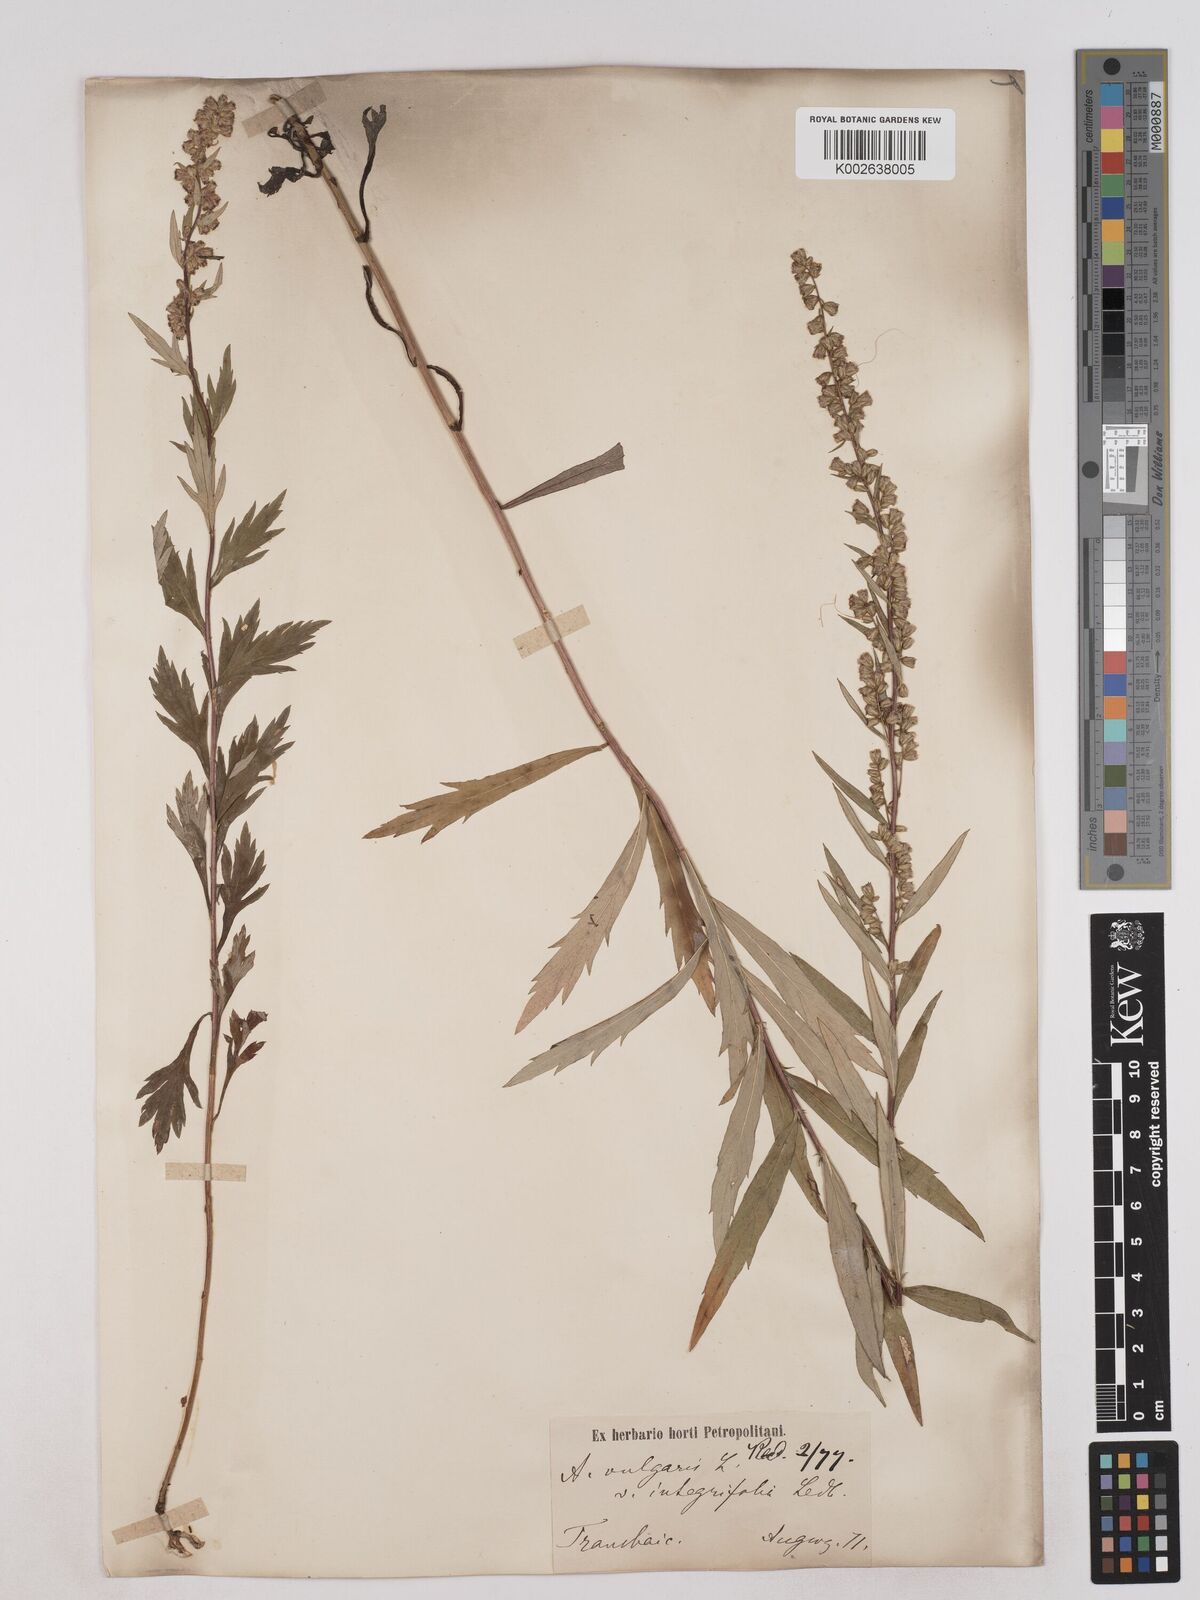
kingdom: Plantae
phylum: Tracheophyta
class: Magnoliopsida
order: Asterales
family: Asteraceae
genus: Artemisia
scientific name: Artemisia integrifolia
